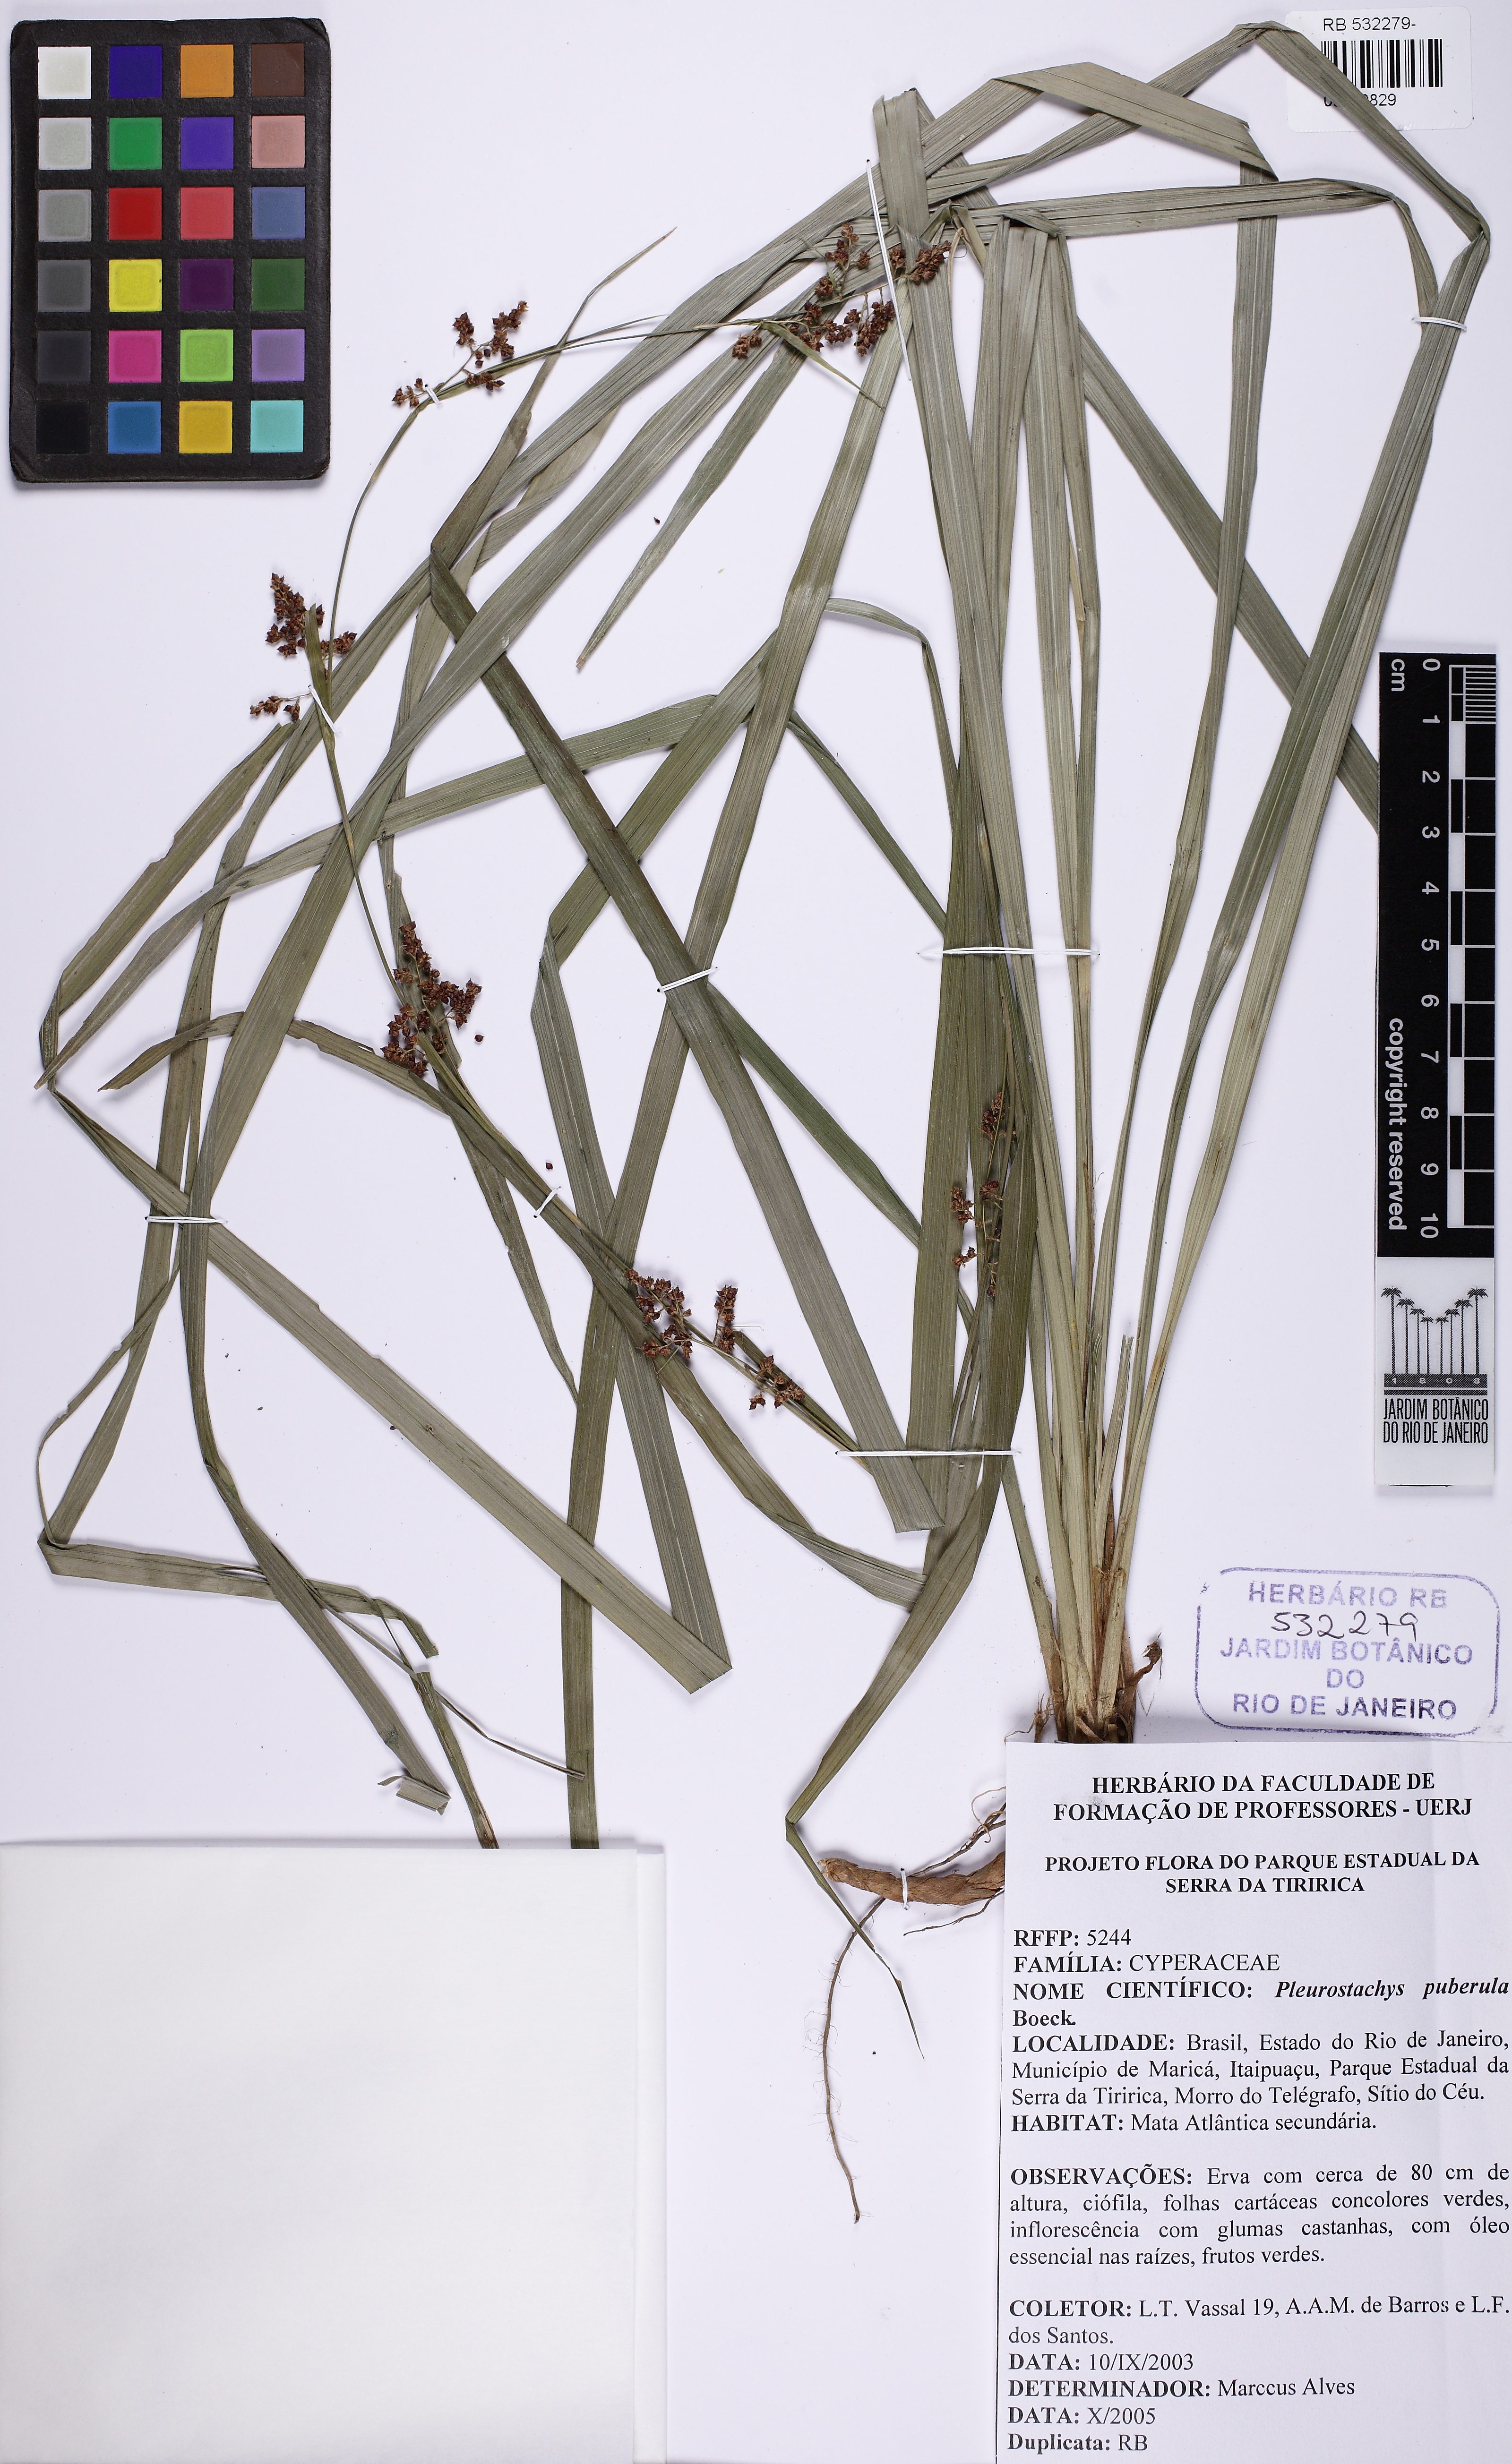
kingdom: Plantae
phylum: Tracheophyta
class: Liliopsida
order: Poales
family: Cyperaceae
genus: Rhynchospora
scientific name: Rhynchospora orbignyana
